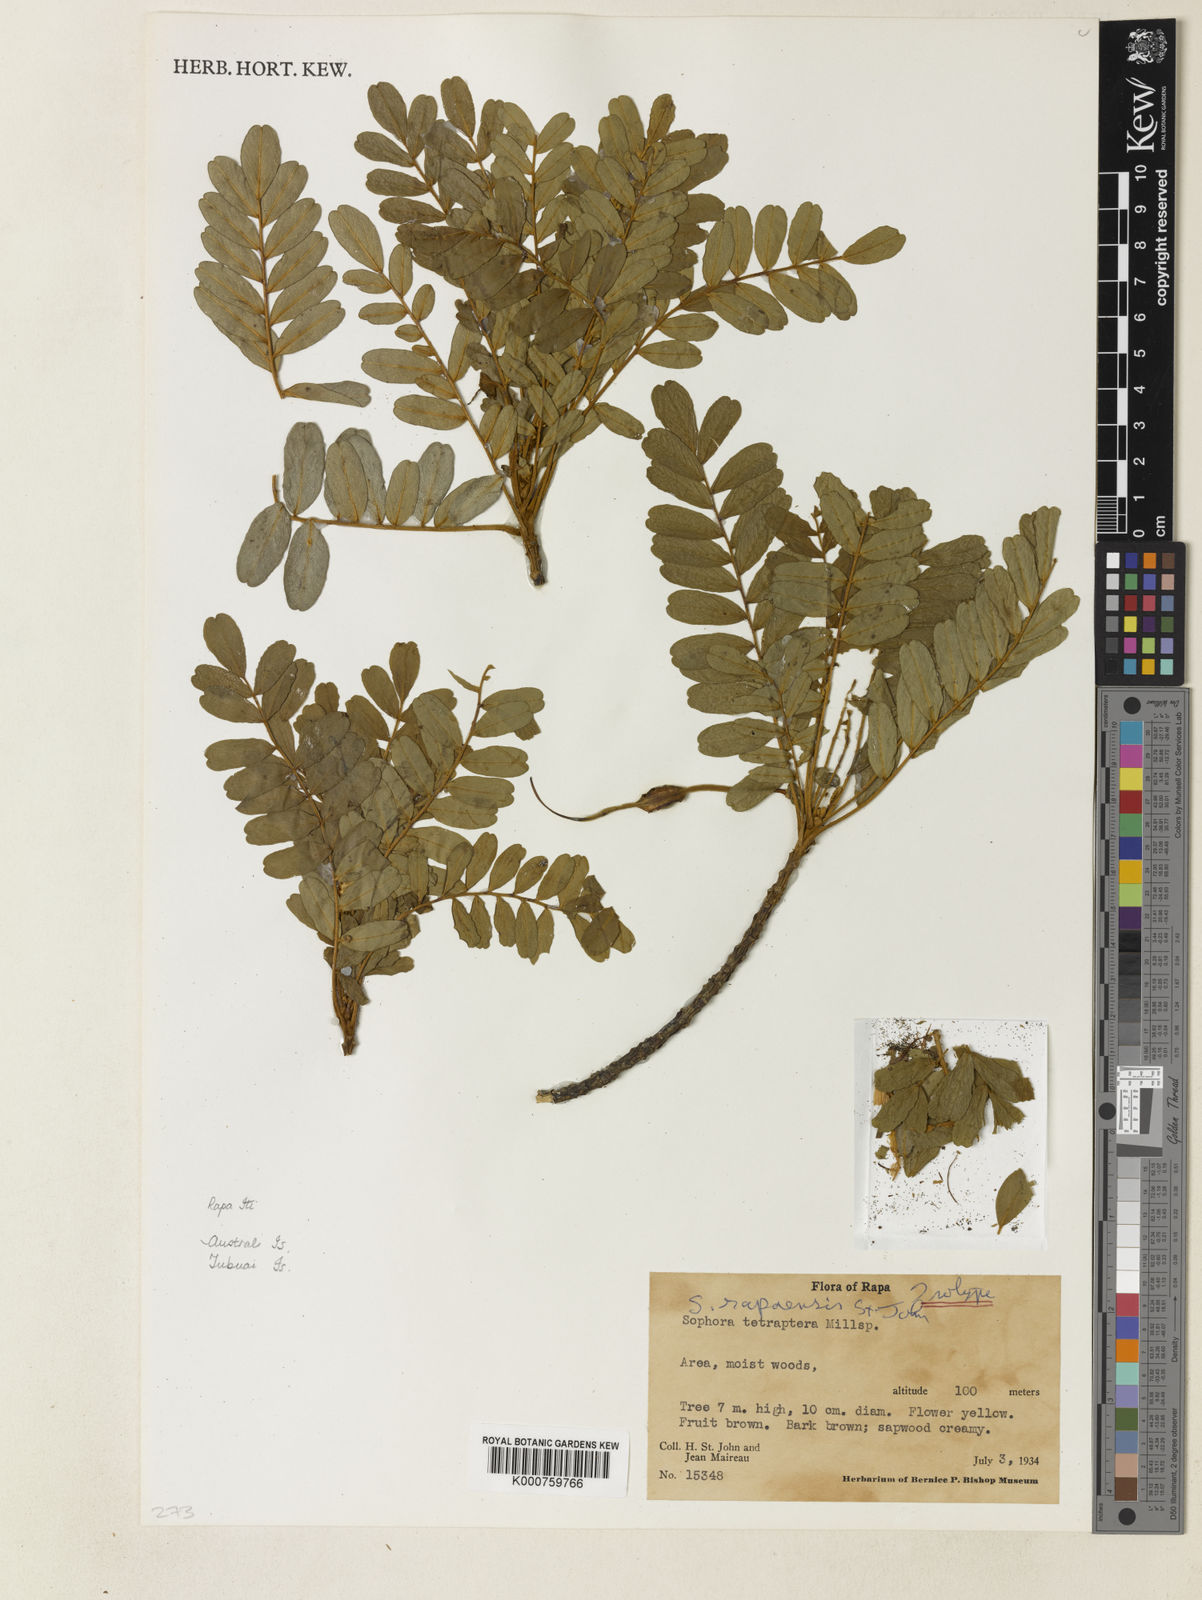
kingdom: Plantae
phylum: Tracheophyta
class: Magnoliopsida
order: Fabales
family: Fabaceae
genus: Sophora
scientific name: Sophora rapaensis
